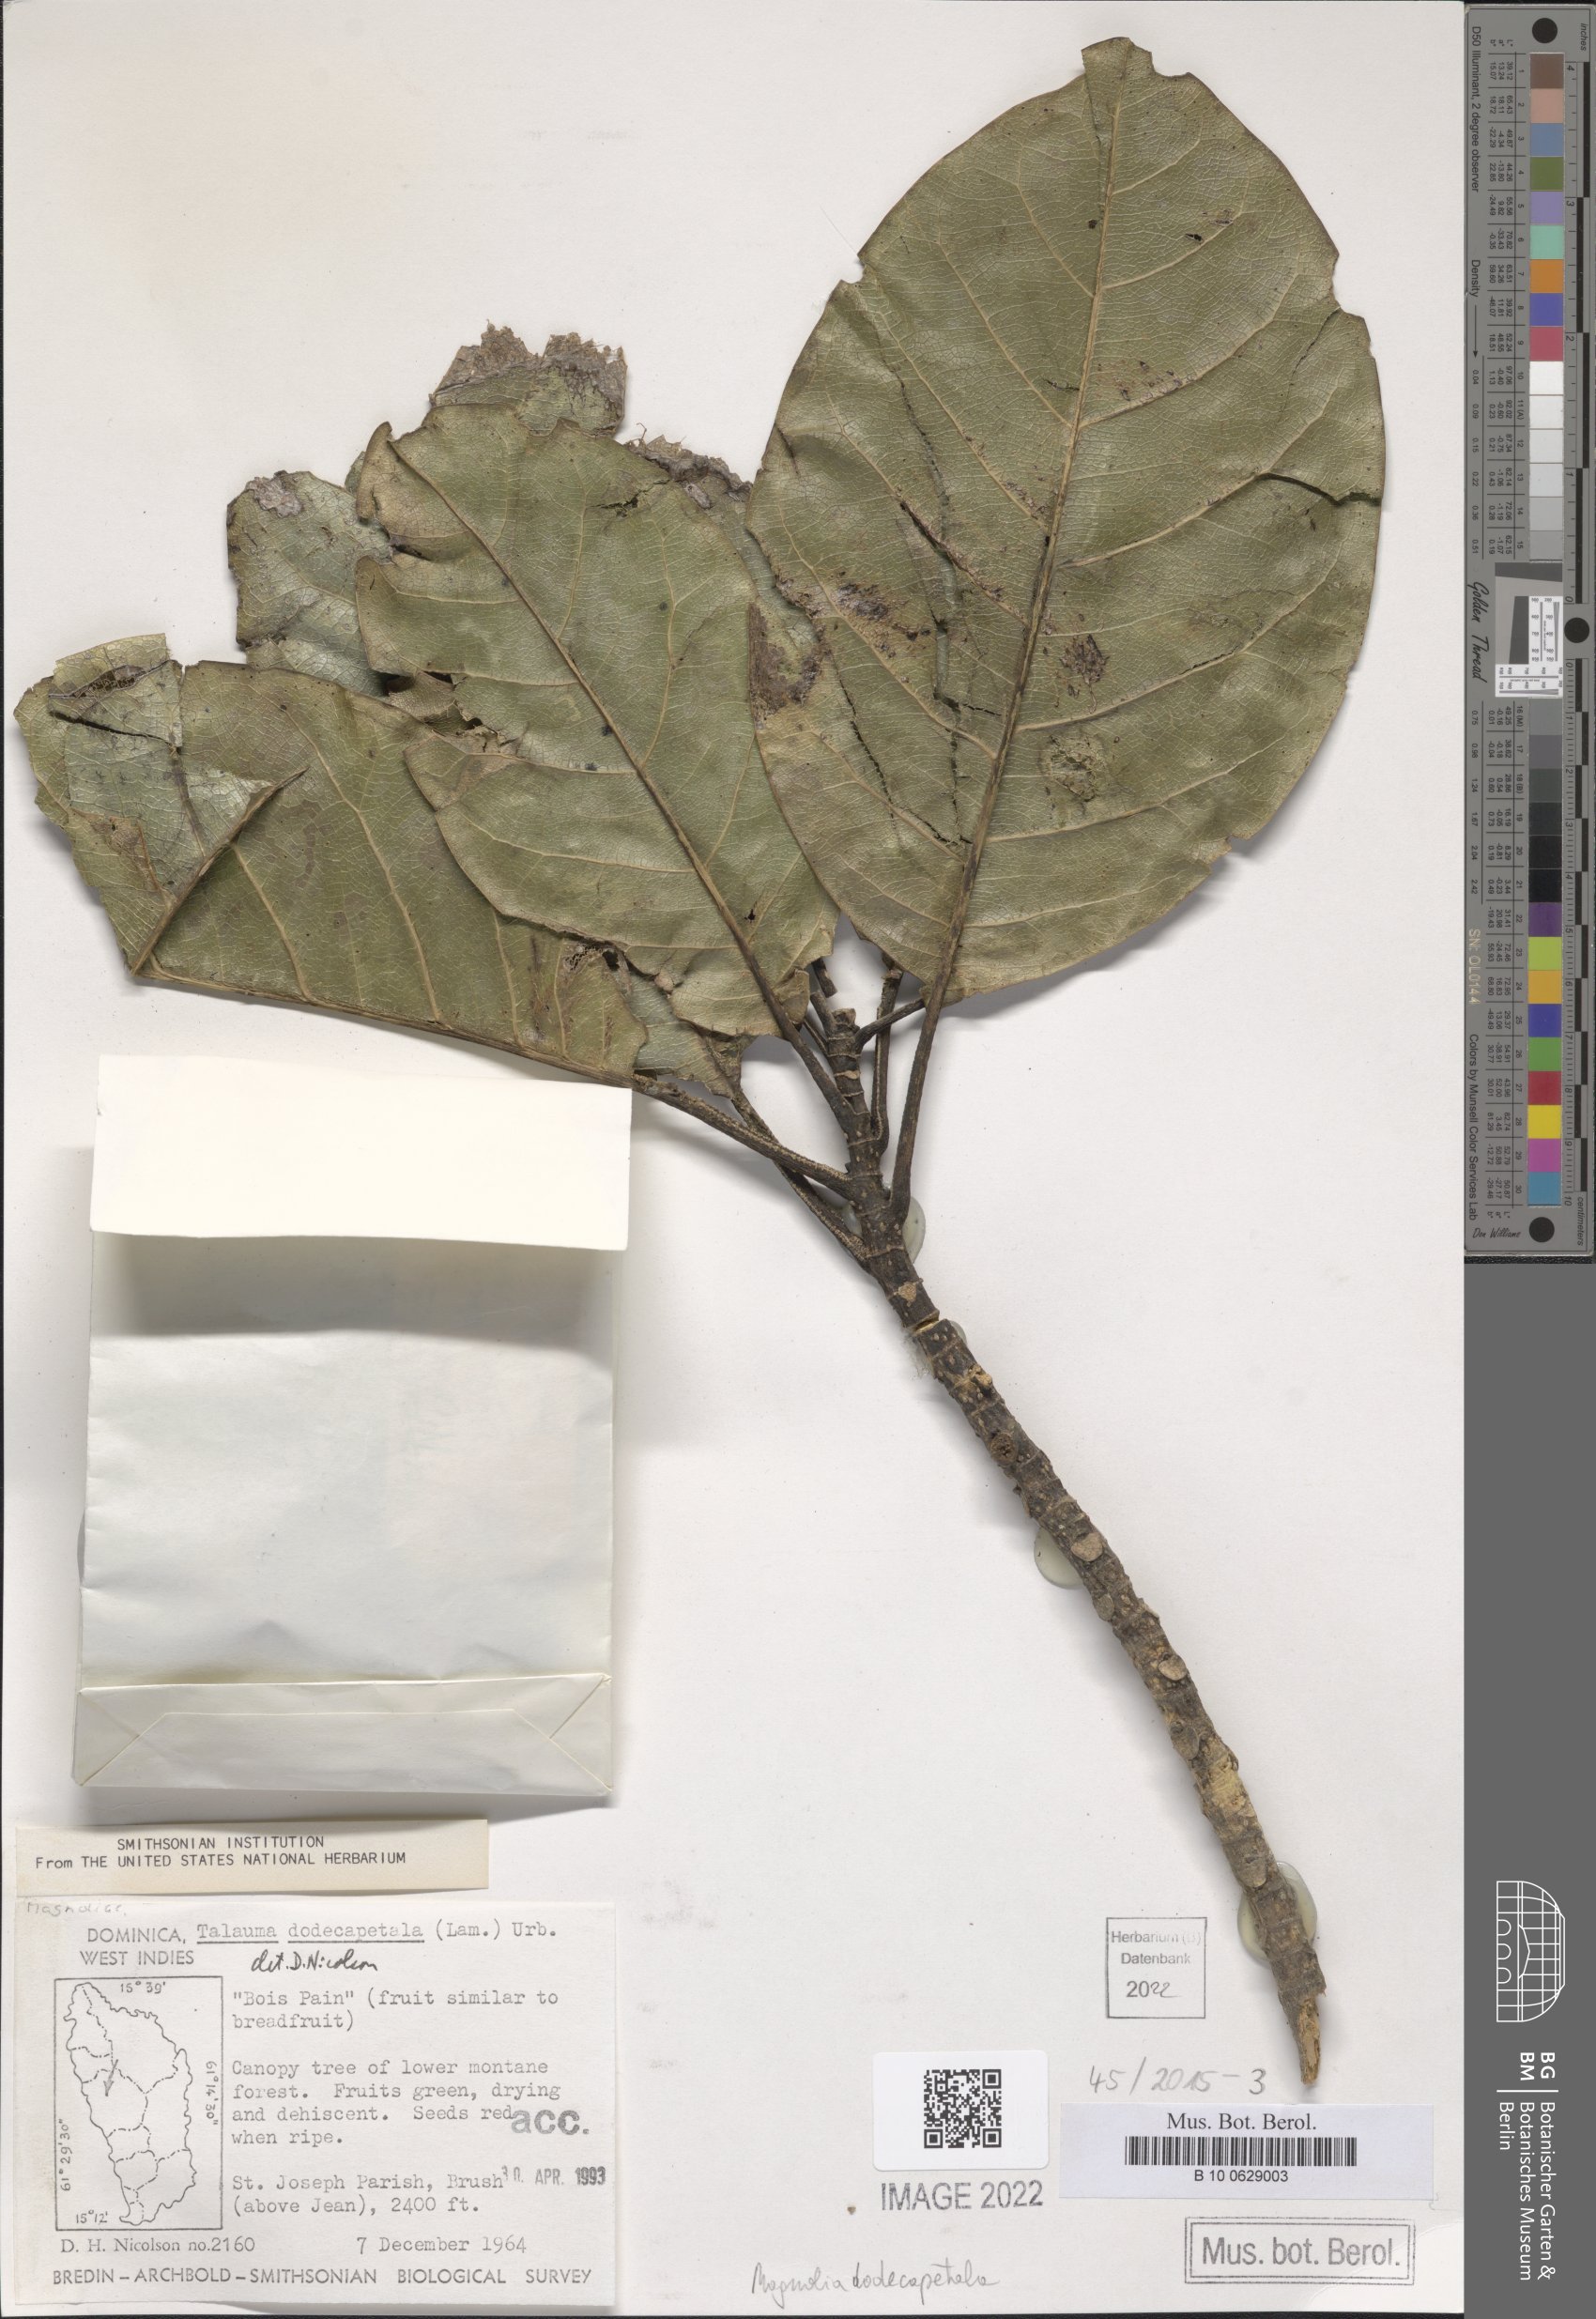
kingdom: Plantae
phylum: Tracheophyta
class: Magnoliopsida
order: Magnoliales
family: Magnoliaceae
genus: Magnolia
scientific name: Magnolia dodecapetala
